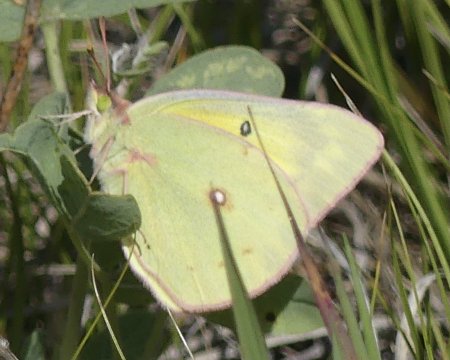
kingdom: Animalia
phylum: Arthropoda
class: Insecta
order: Lepidoptera
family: Pieridae
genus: Colias
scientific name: Colias philodice
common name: Clouded Sulphur
